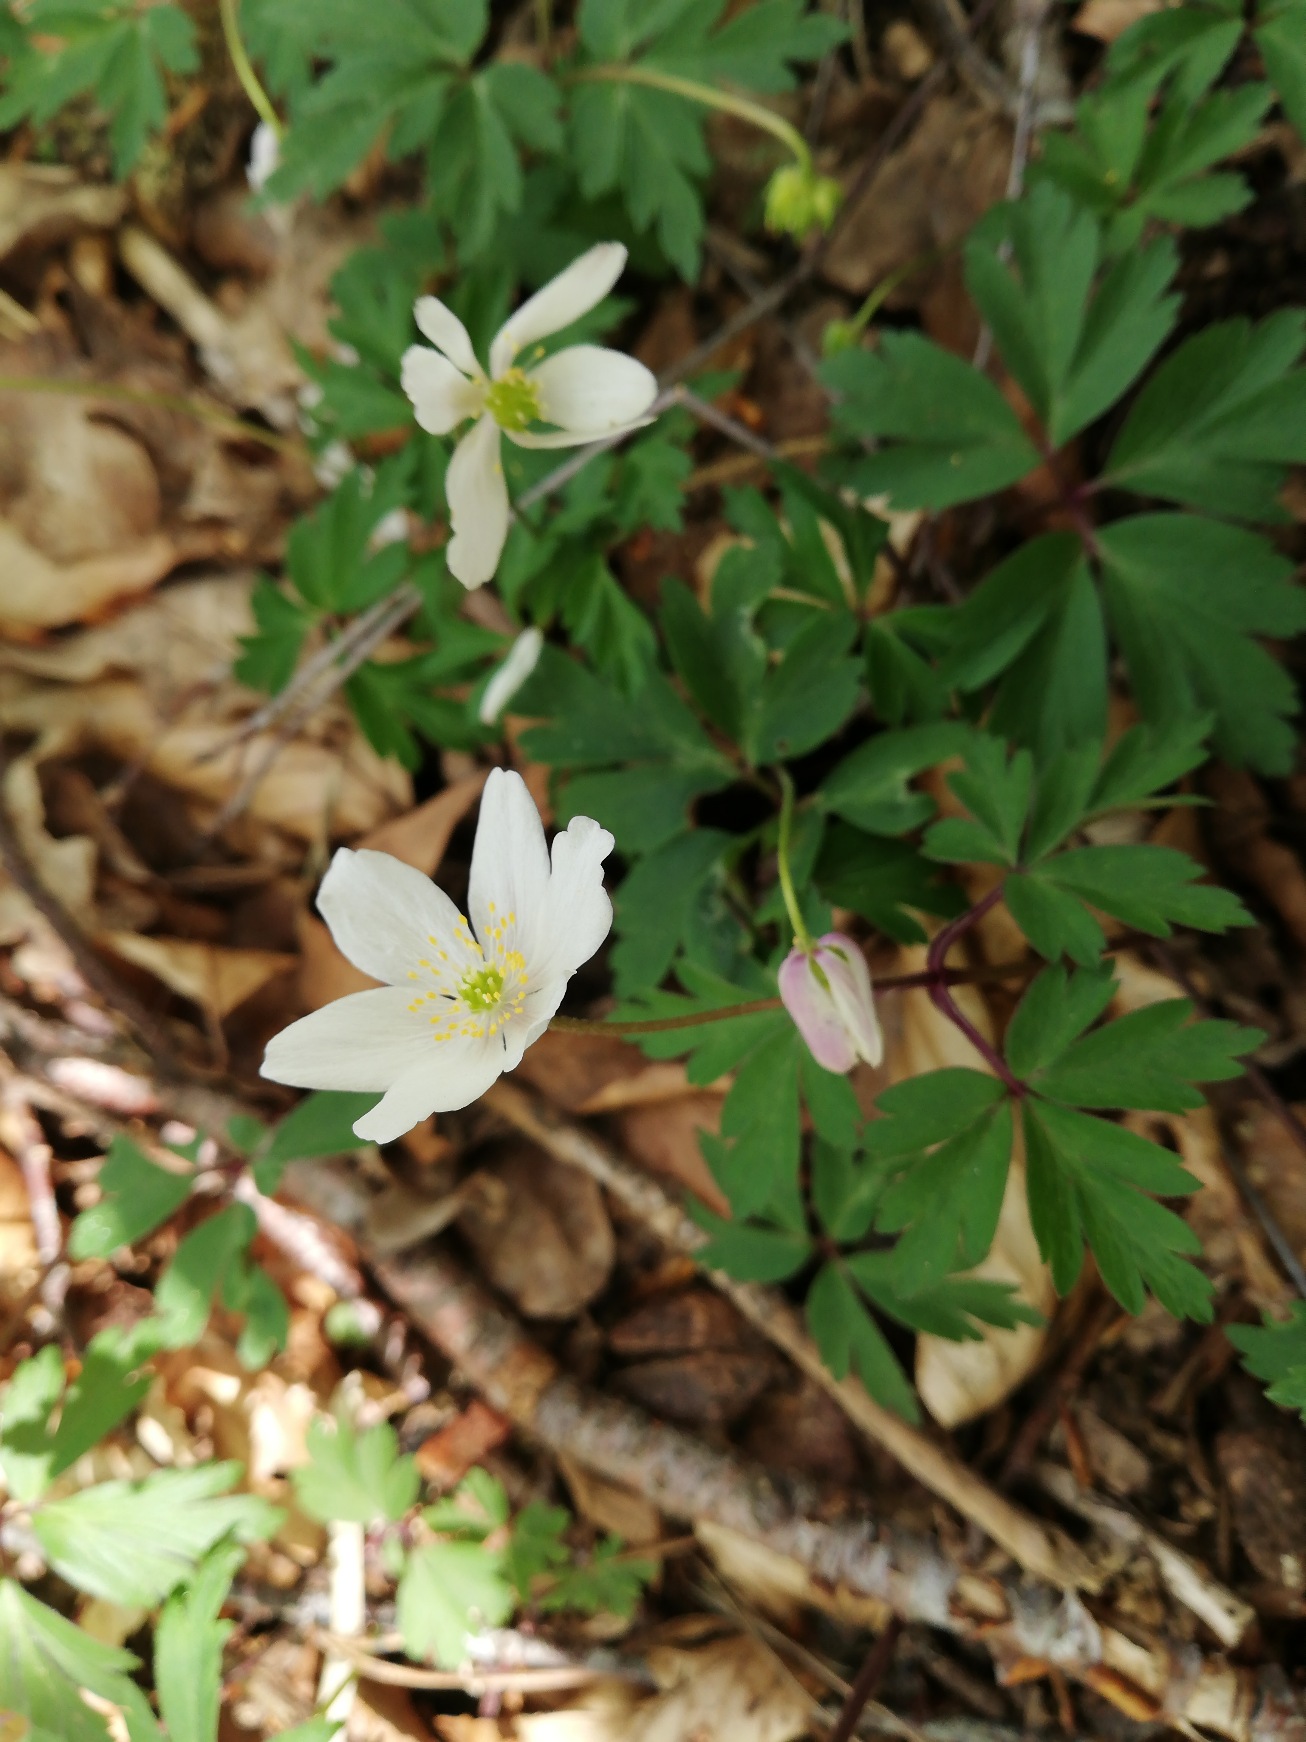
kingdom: Plantae
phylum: Tracheophyta
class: Magnoliopsida
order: Ranunculales
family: Ranunculaceae
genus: Anemone
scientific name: Anemone nemorosa
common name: Hvid anemone
